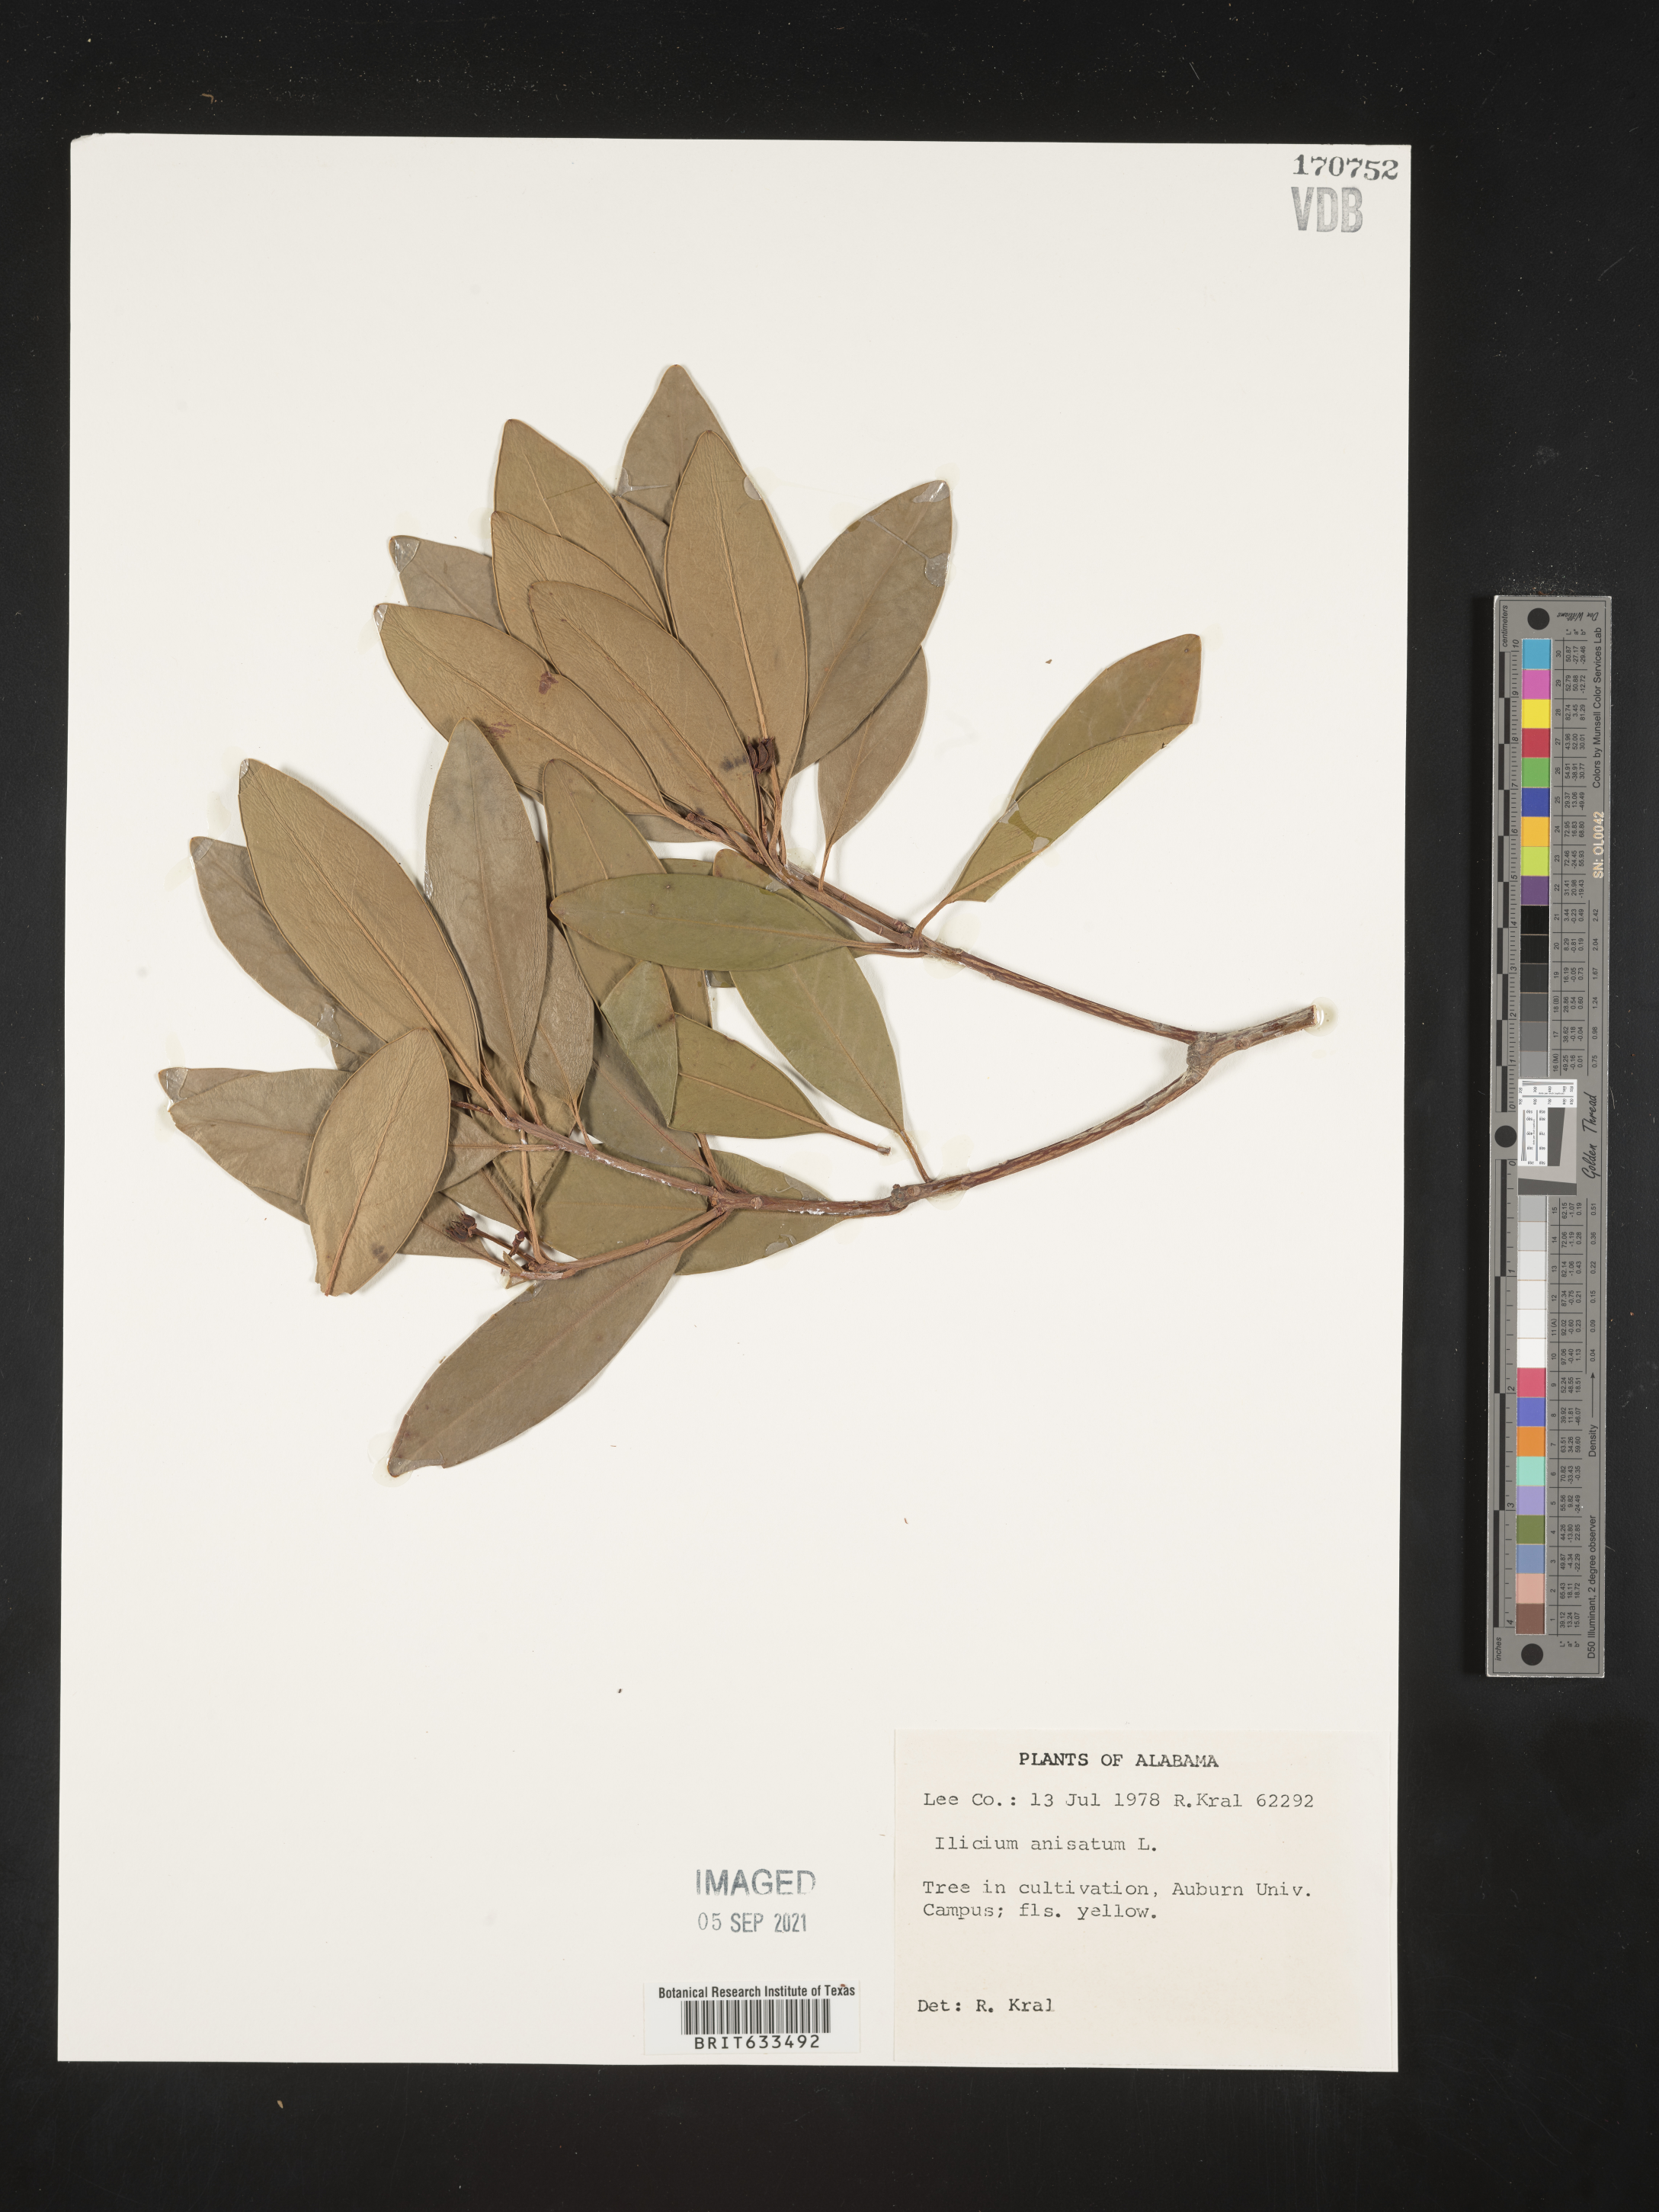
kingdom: Plantae
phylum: Tracheophyta
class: Magnoliopsida
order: Austrobaileyales
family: Schisandraceae
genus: Illicium
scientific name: Illicium
